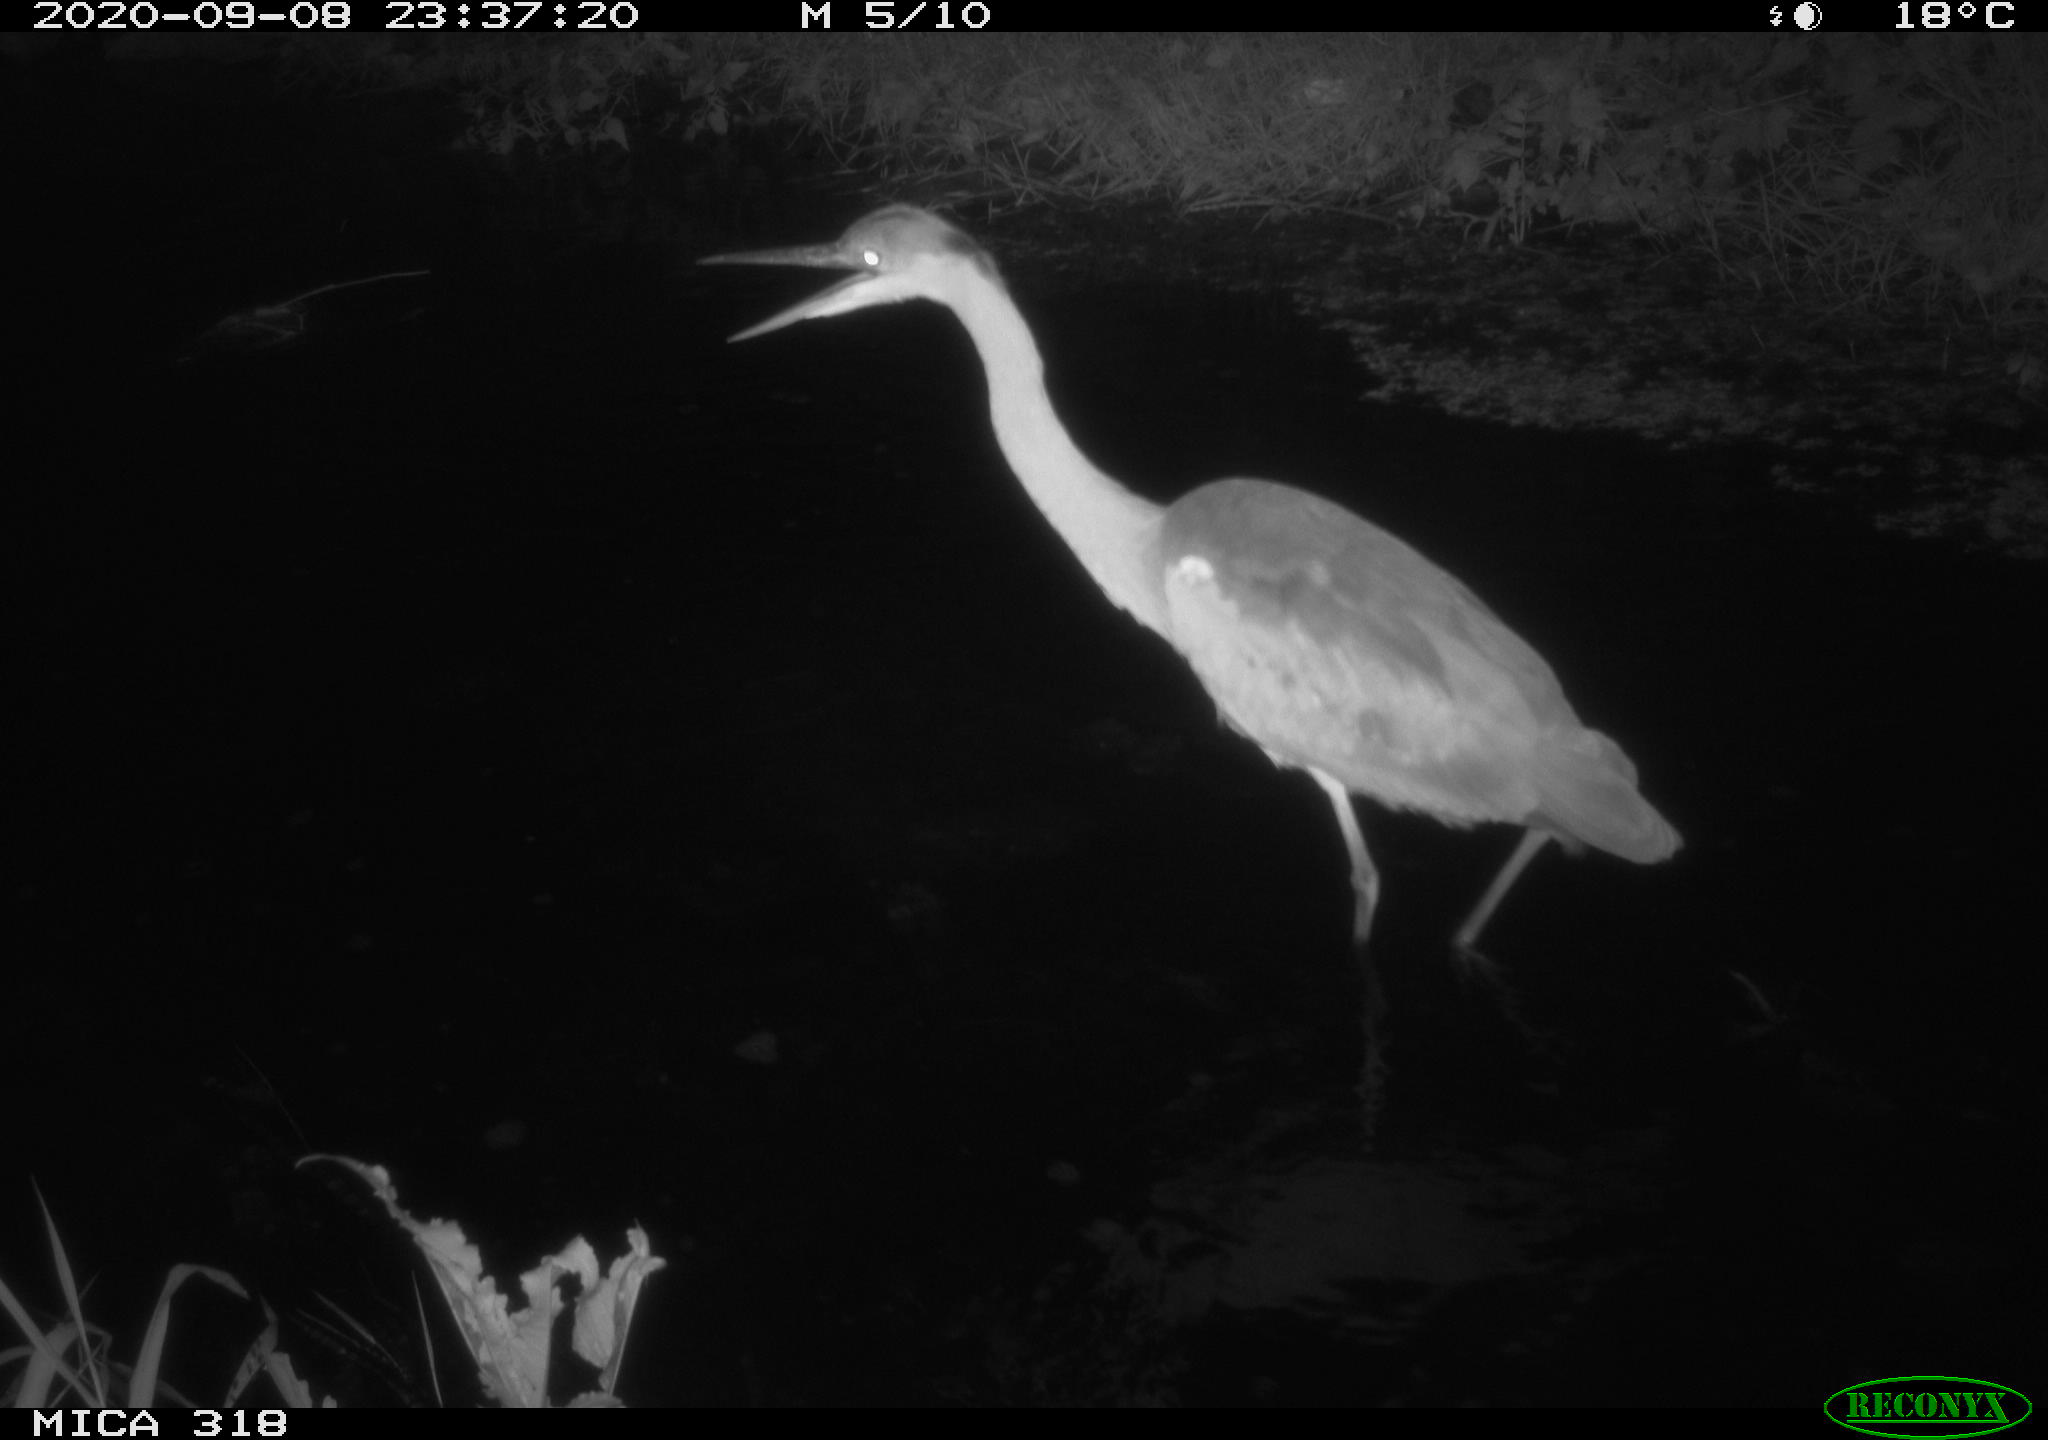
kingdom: Animalia
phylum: Chordata
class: Aves
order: Pelecaniformes
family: Ardeidae
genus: Ardea
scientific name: Ardea cinerea
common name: Grey heron
